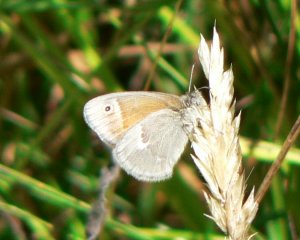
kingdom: Animalia
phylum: Arthropoda
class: Insecta
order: Lepidoptera
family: Nymphalidae
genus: Coenonympha
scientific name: Coenonympha tullia
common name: Large Heath
